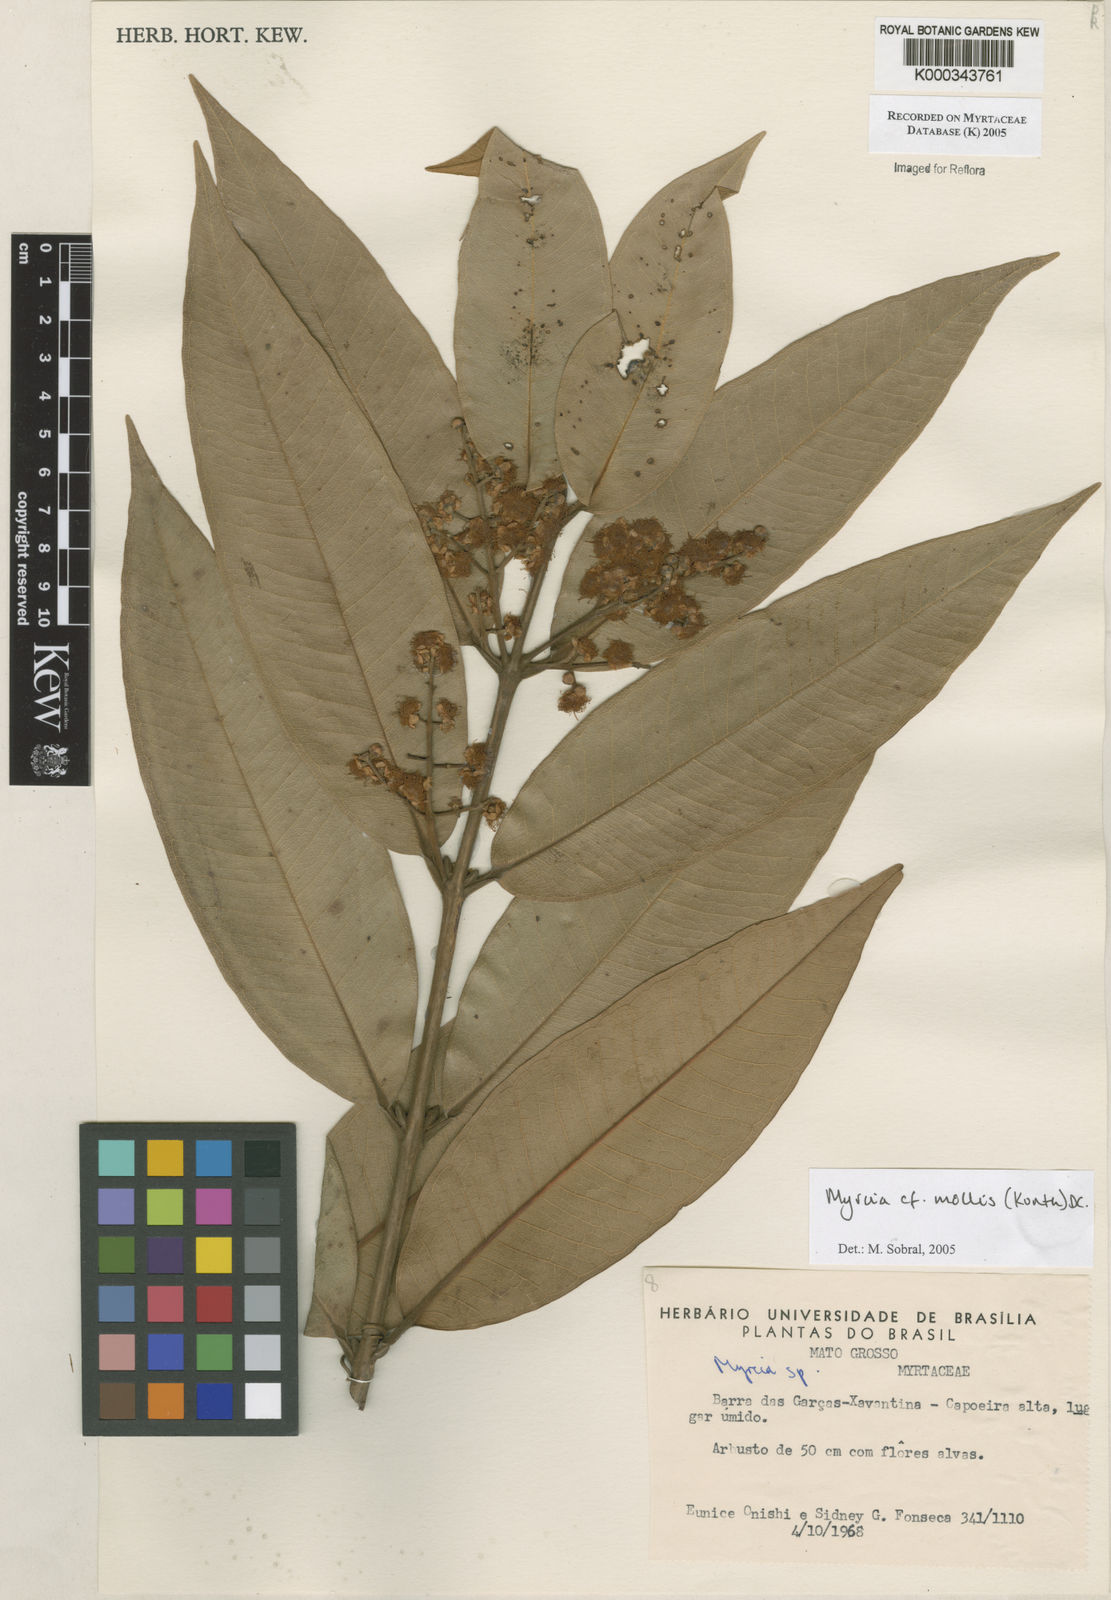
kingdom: Plantae
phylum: Tracheophyta
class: Magnoliopsida
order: Myrtales
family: Myrtaceae
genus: Myrcia
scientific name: Myrcia mollis
